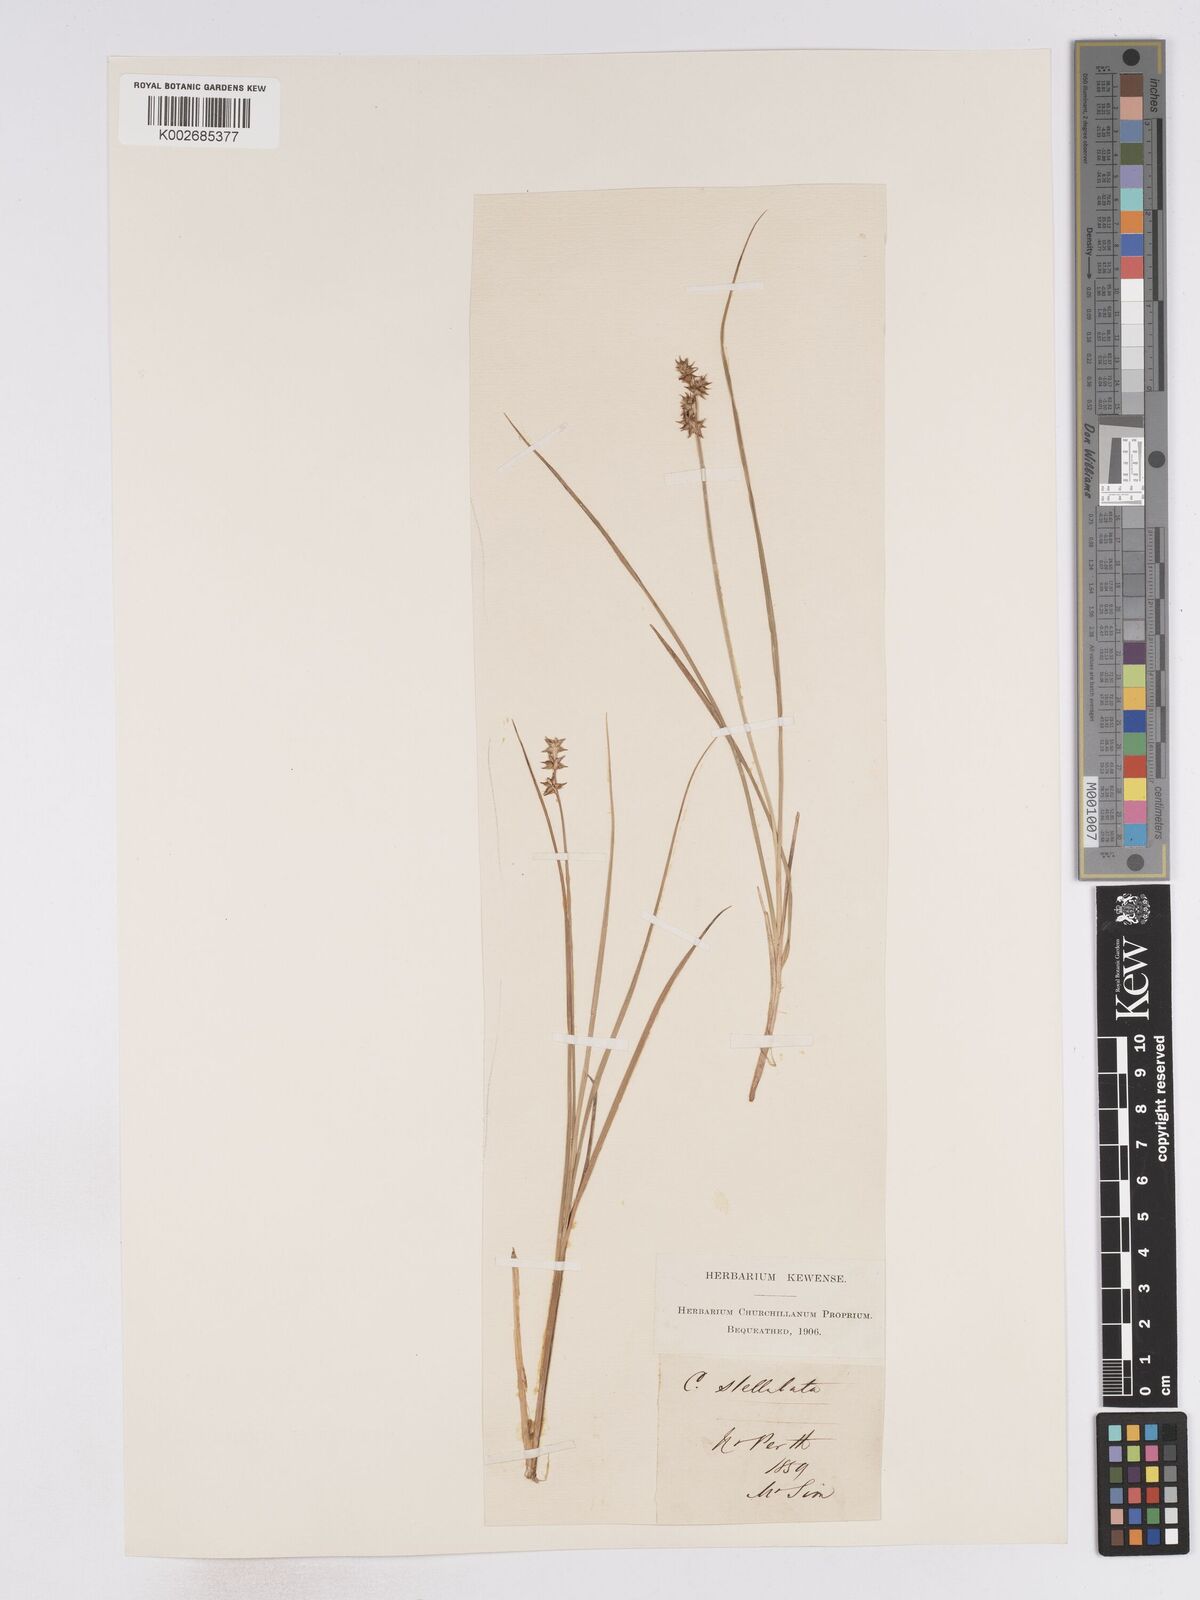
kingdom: Plantae
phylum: Tracheophyta
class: Liliopsida
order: Poales
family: Cyperaceae
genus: Carex
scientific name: Carex echinata
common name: Star sedge
